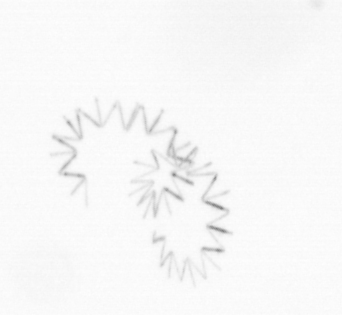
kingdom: Chromista
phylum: Ochrophyta
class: Bacillariophyceae
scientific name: Bacillariophyceae
